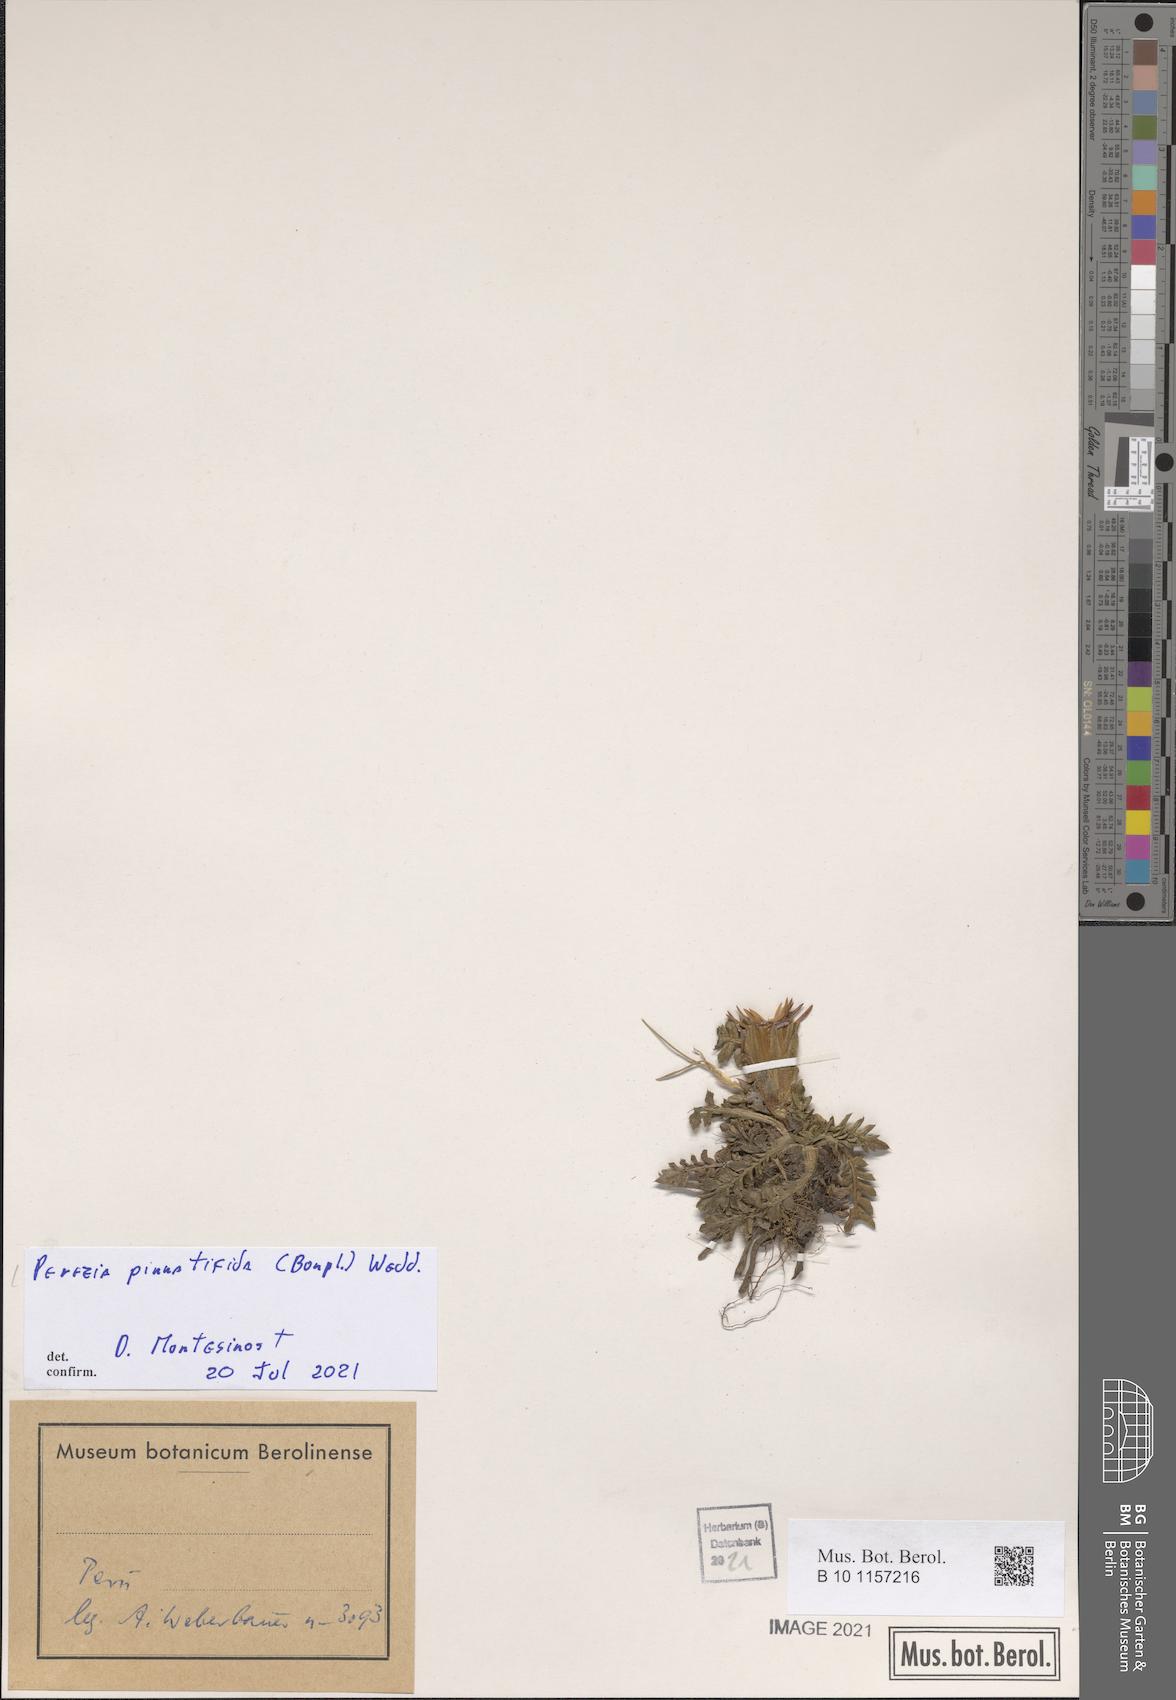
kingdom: Plantae
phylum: Tracheophyta
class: Magnoliopsida
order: Asterales
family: Asteraceae
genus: Perezia
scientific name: Perezia pinnatifida
